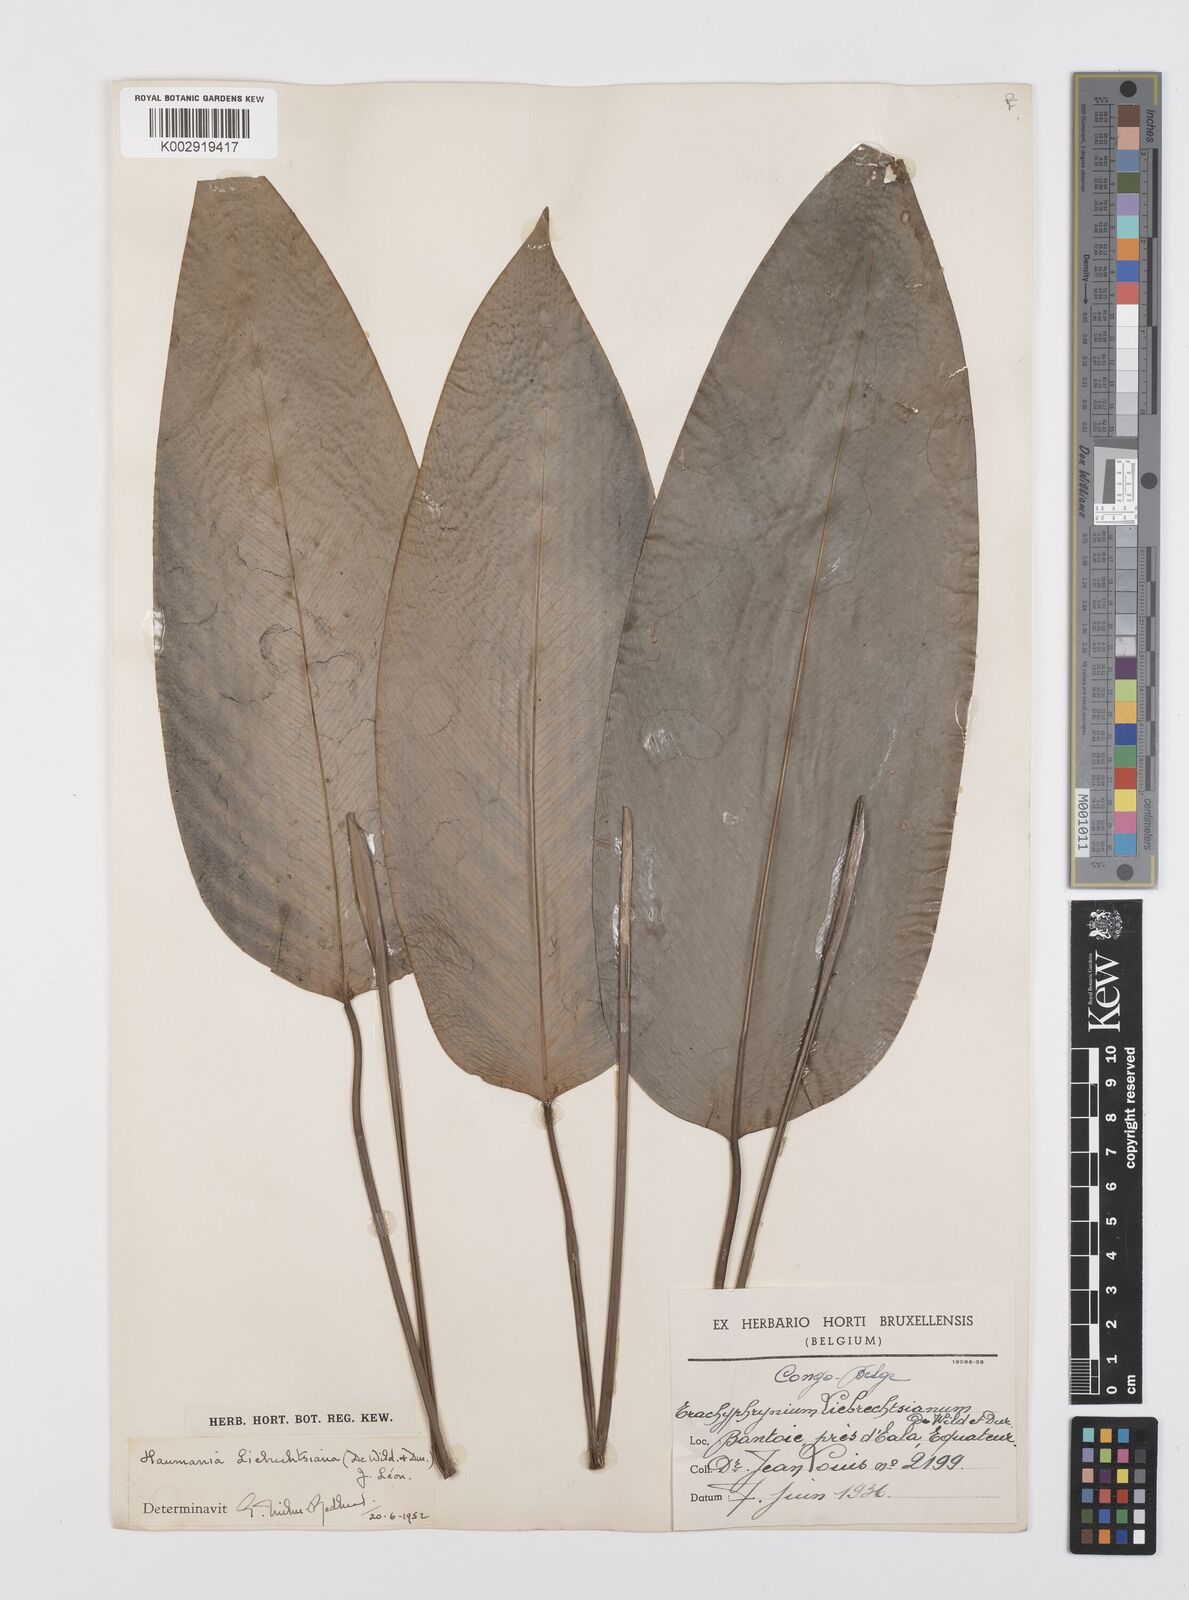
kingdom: Plantae
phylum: Tracheophyta
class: Liliopsida
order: Zingiberales
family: Marantaceae
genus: Haumania
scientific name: Haumania liebrechtsiana
